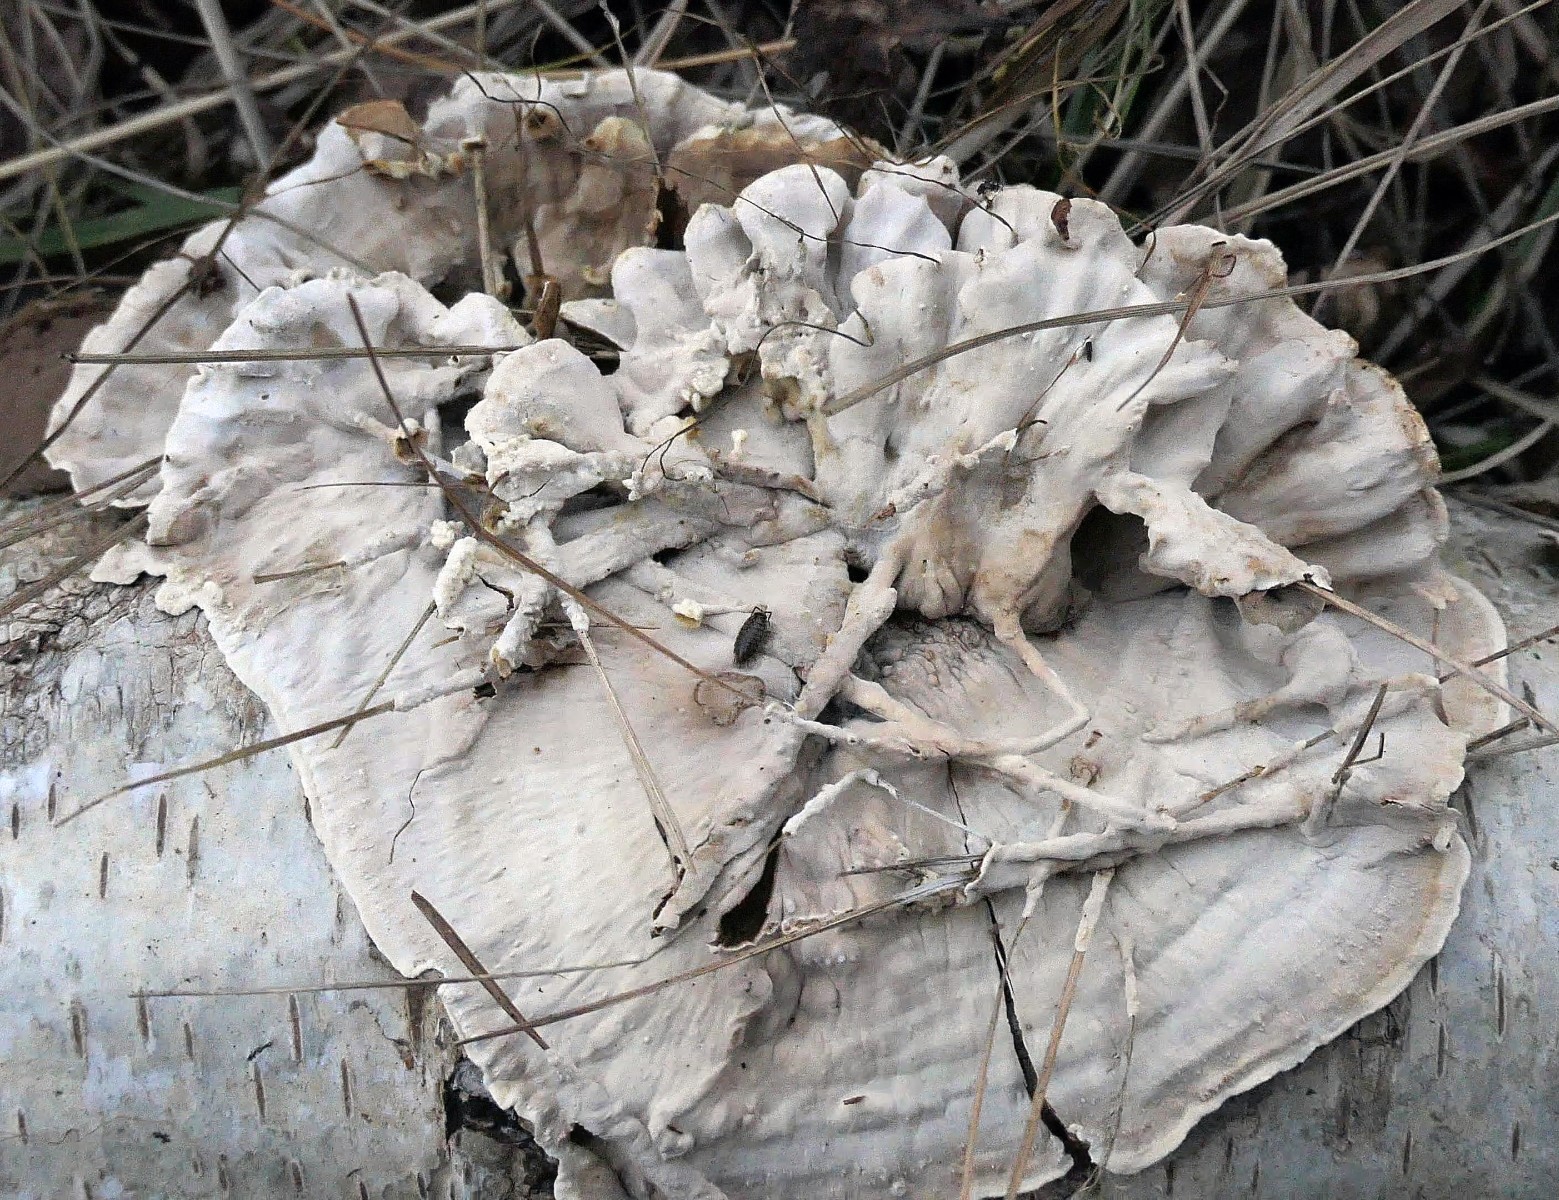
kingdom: Fungi
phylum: Basidiomycota
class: Agaricomycetes
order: Russulales
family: Hericiaceae
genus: Laxitextum
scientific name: Laxitextum bicolor
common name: tvefarvet filtskind
